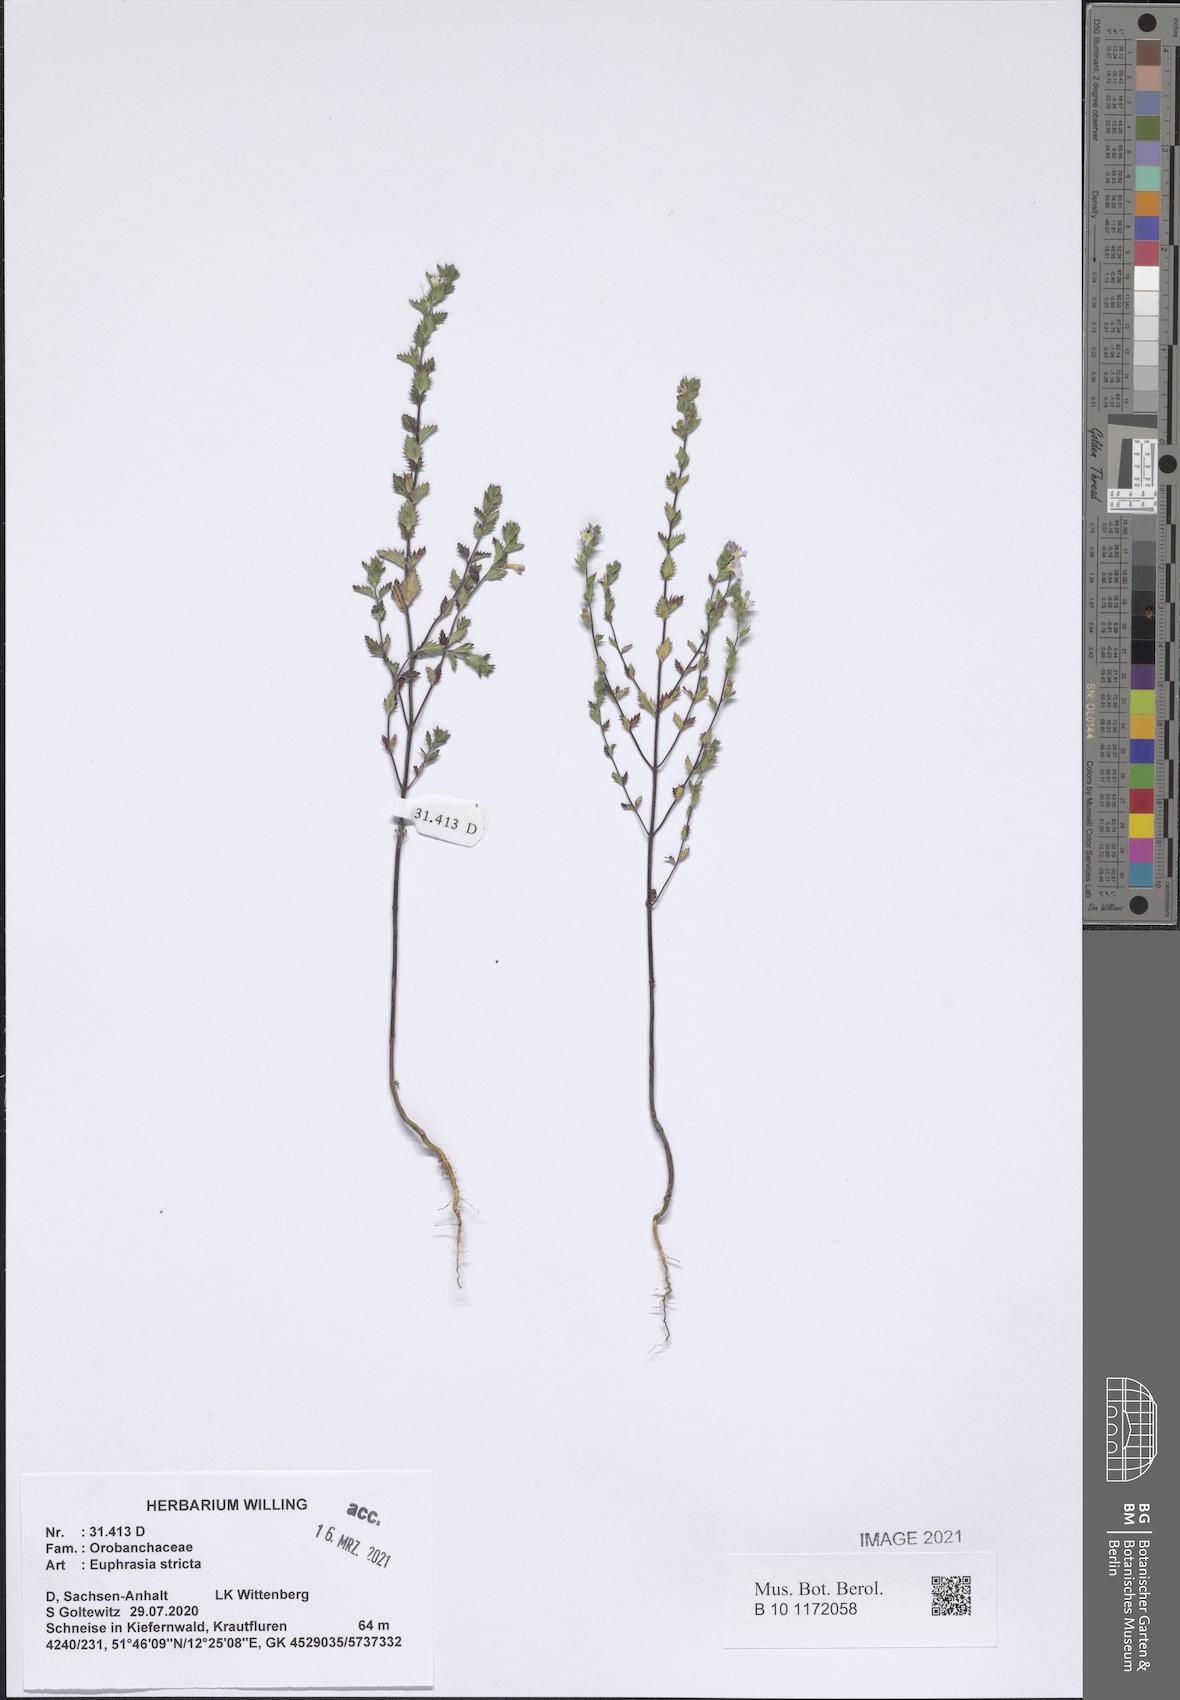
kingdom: Plantae
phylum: Tracheophyta
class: Magnoliopsida
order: Lamiales
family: Orobanchaceae
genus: Euphrasia
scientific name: Euphrasia stricta
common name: Drug eyebright
